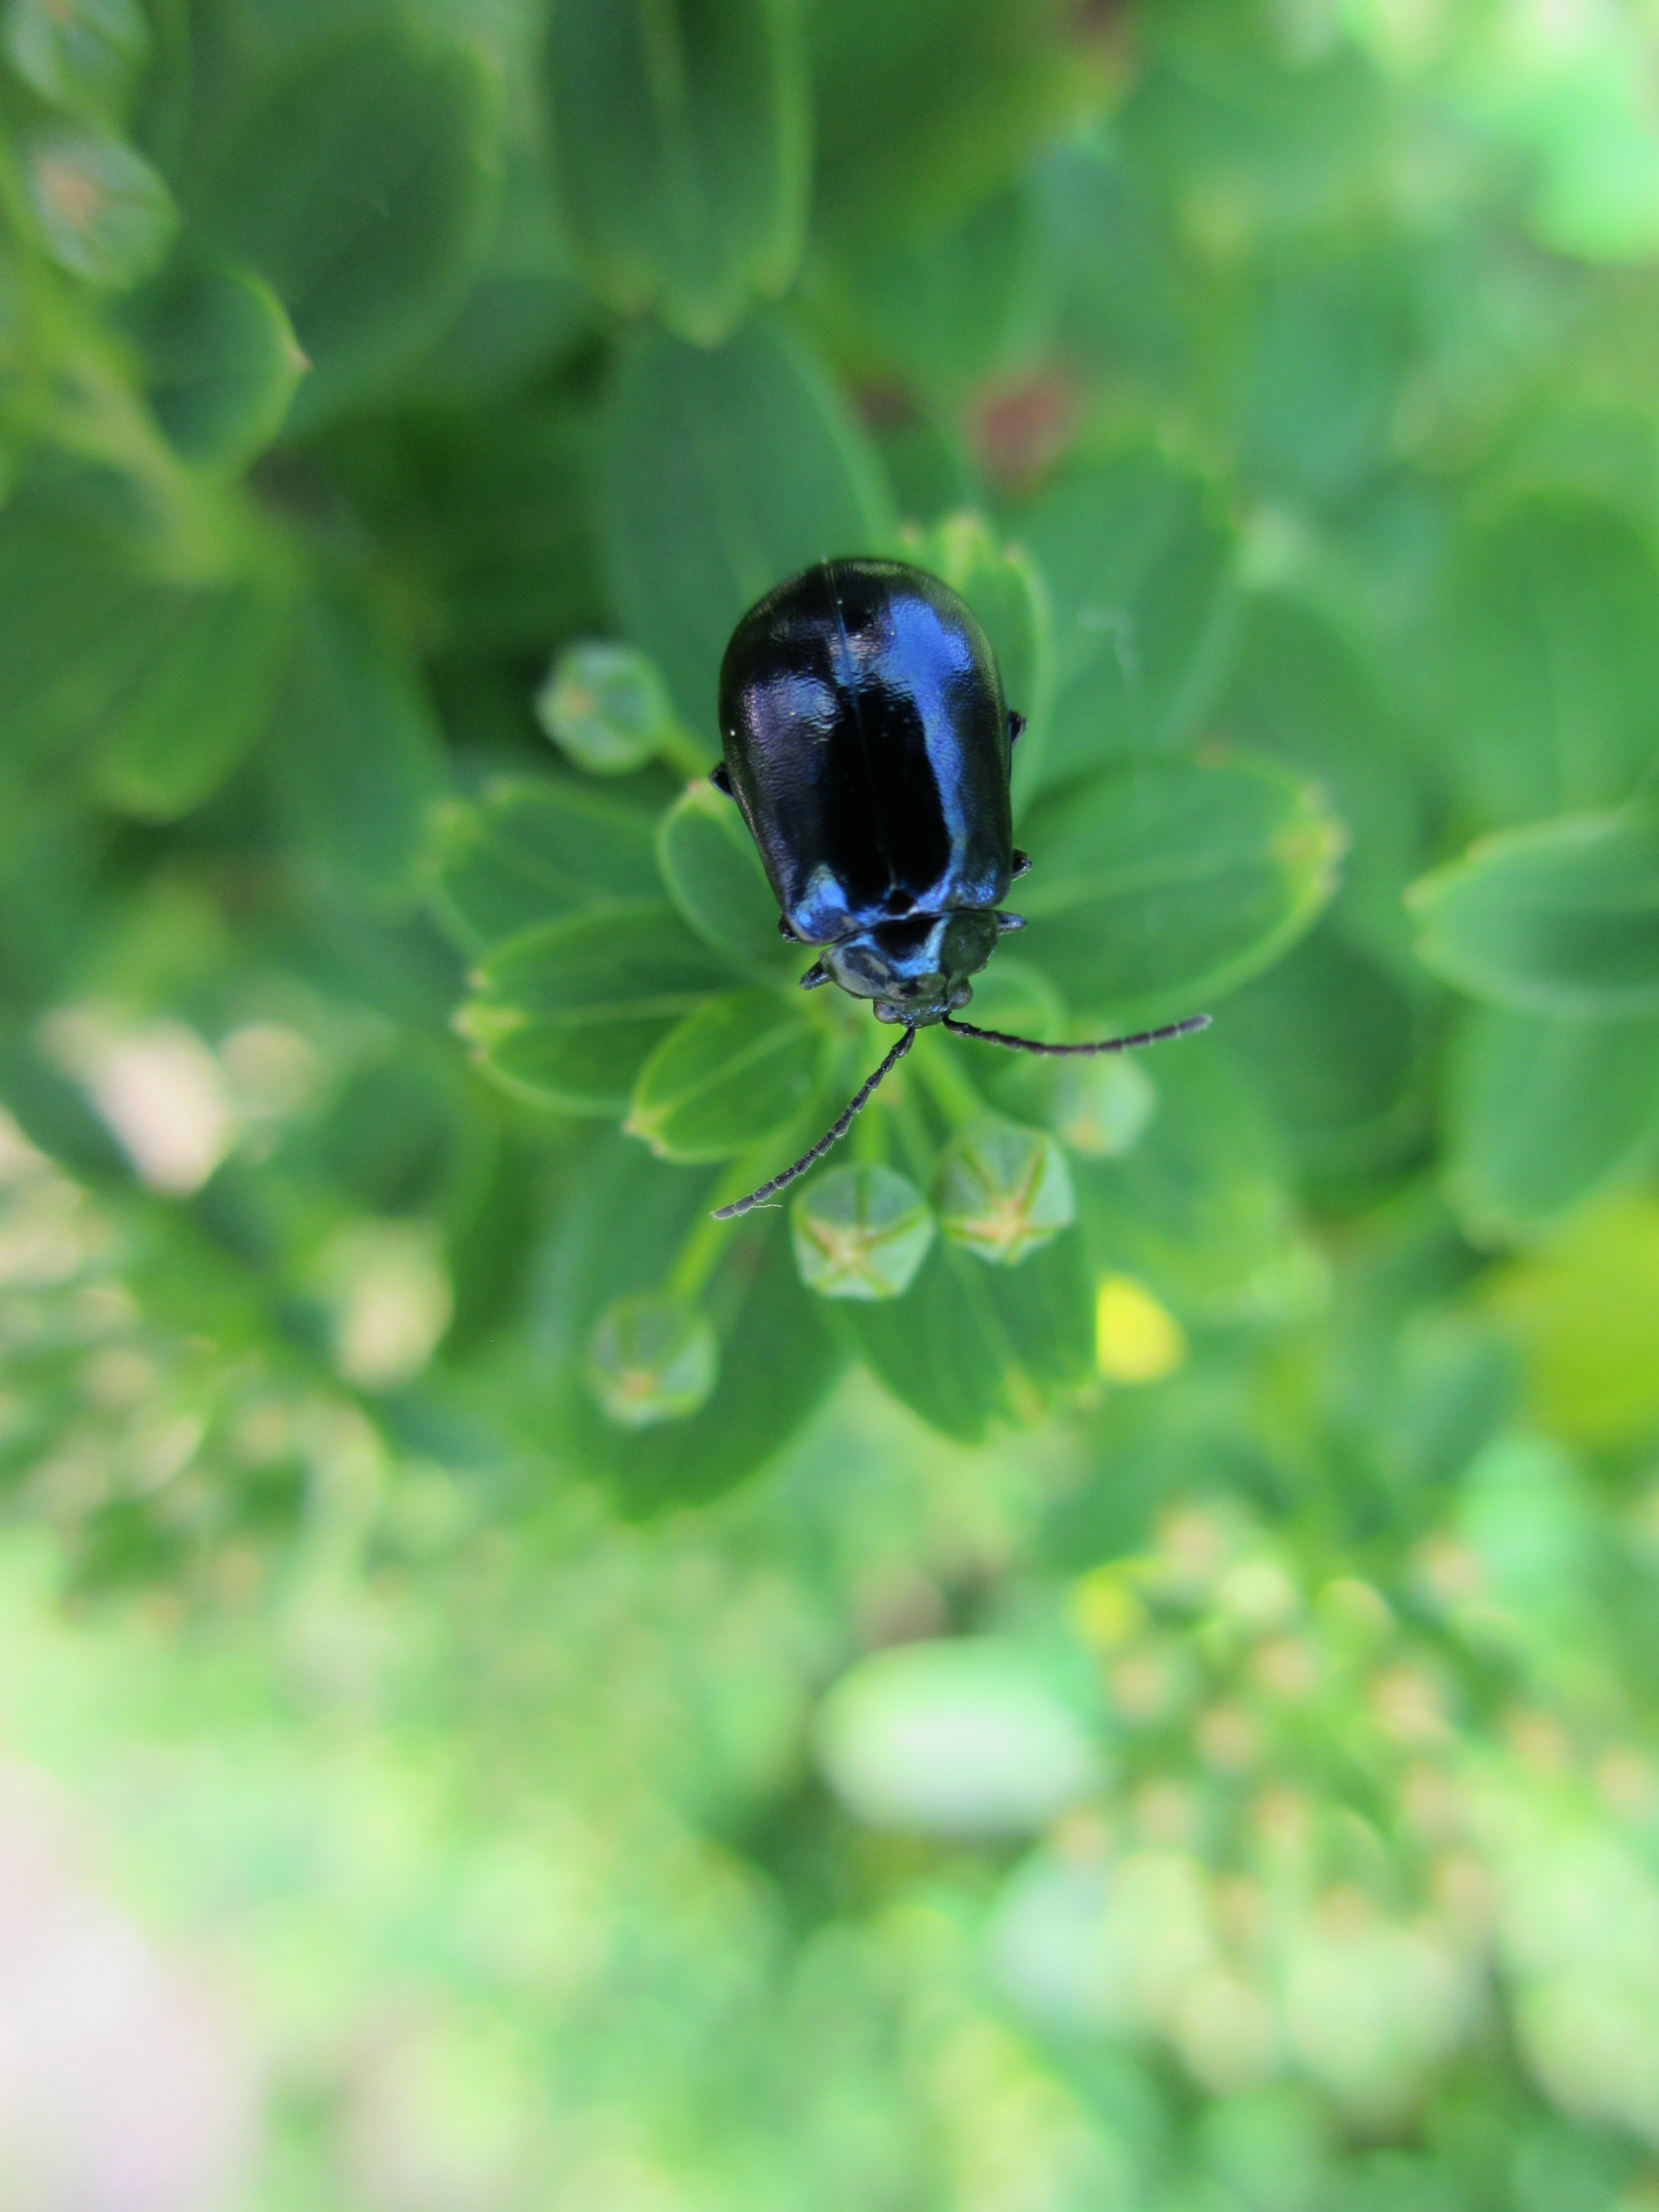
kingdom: Animalia
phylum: Arthropoda
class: Insecta
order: Coleoptera
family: Chrysomelidae
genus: Agelastica
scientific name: Agelastica alni
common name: Ellebladbille
